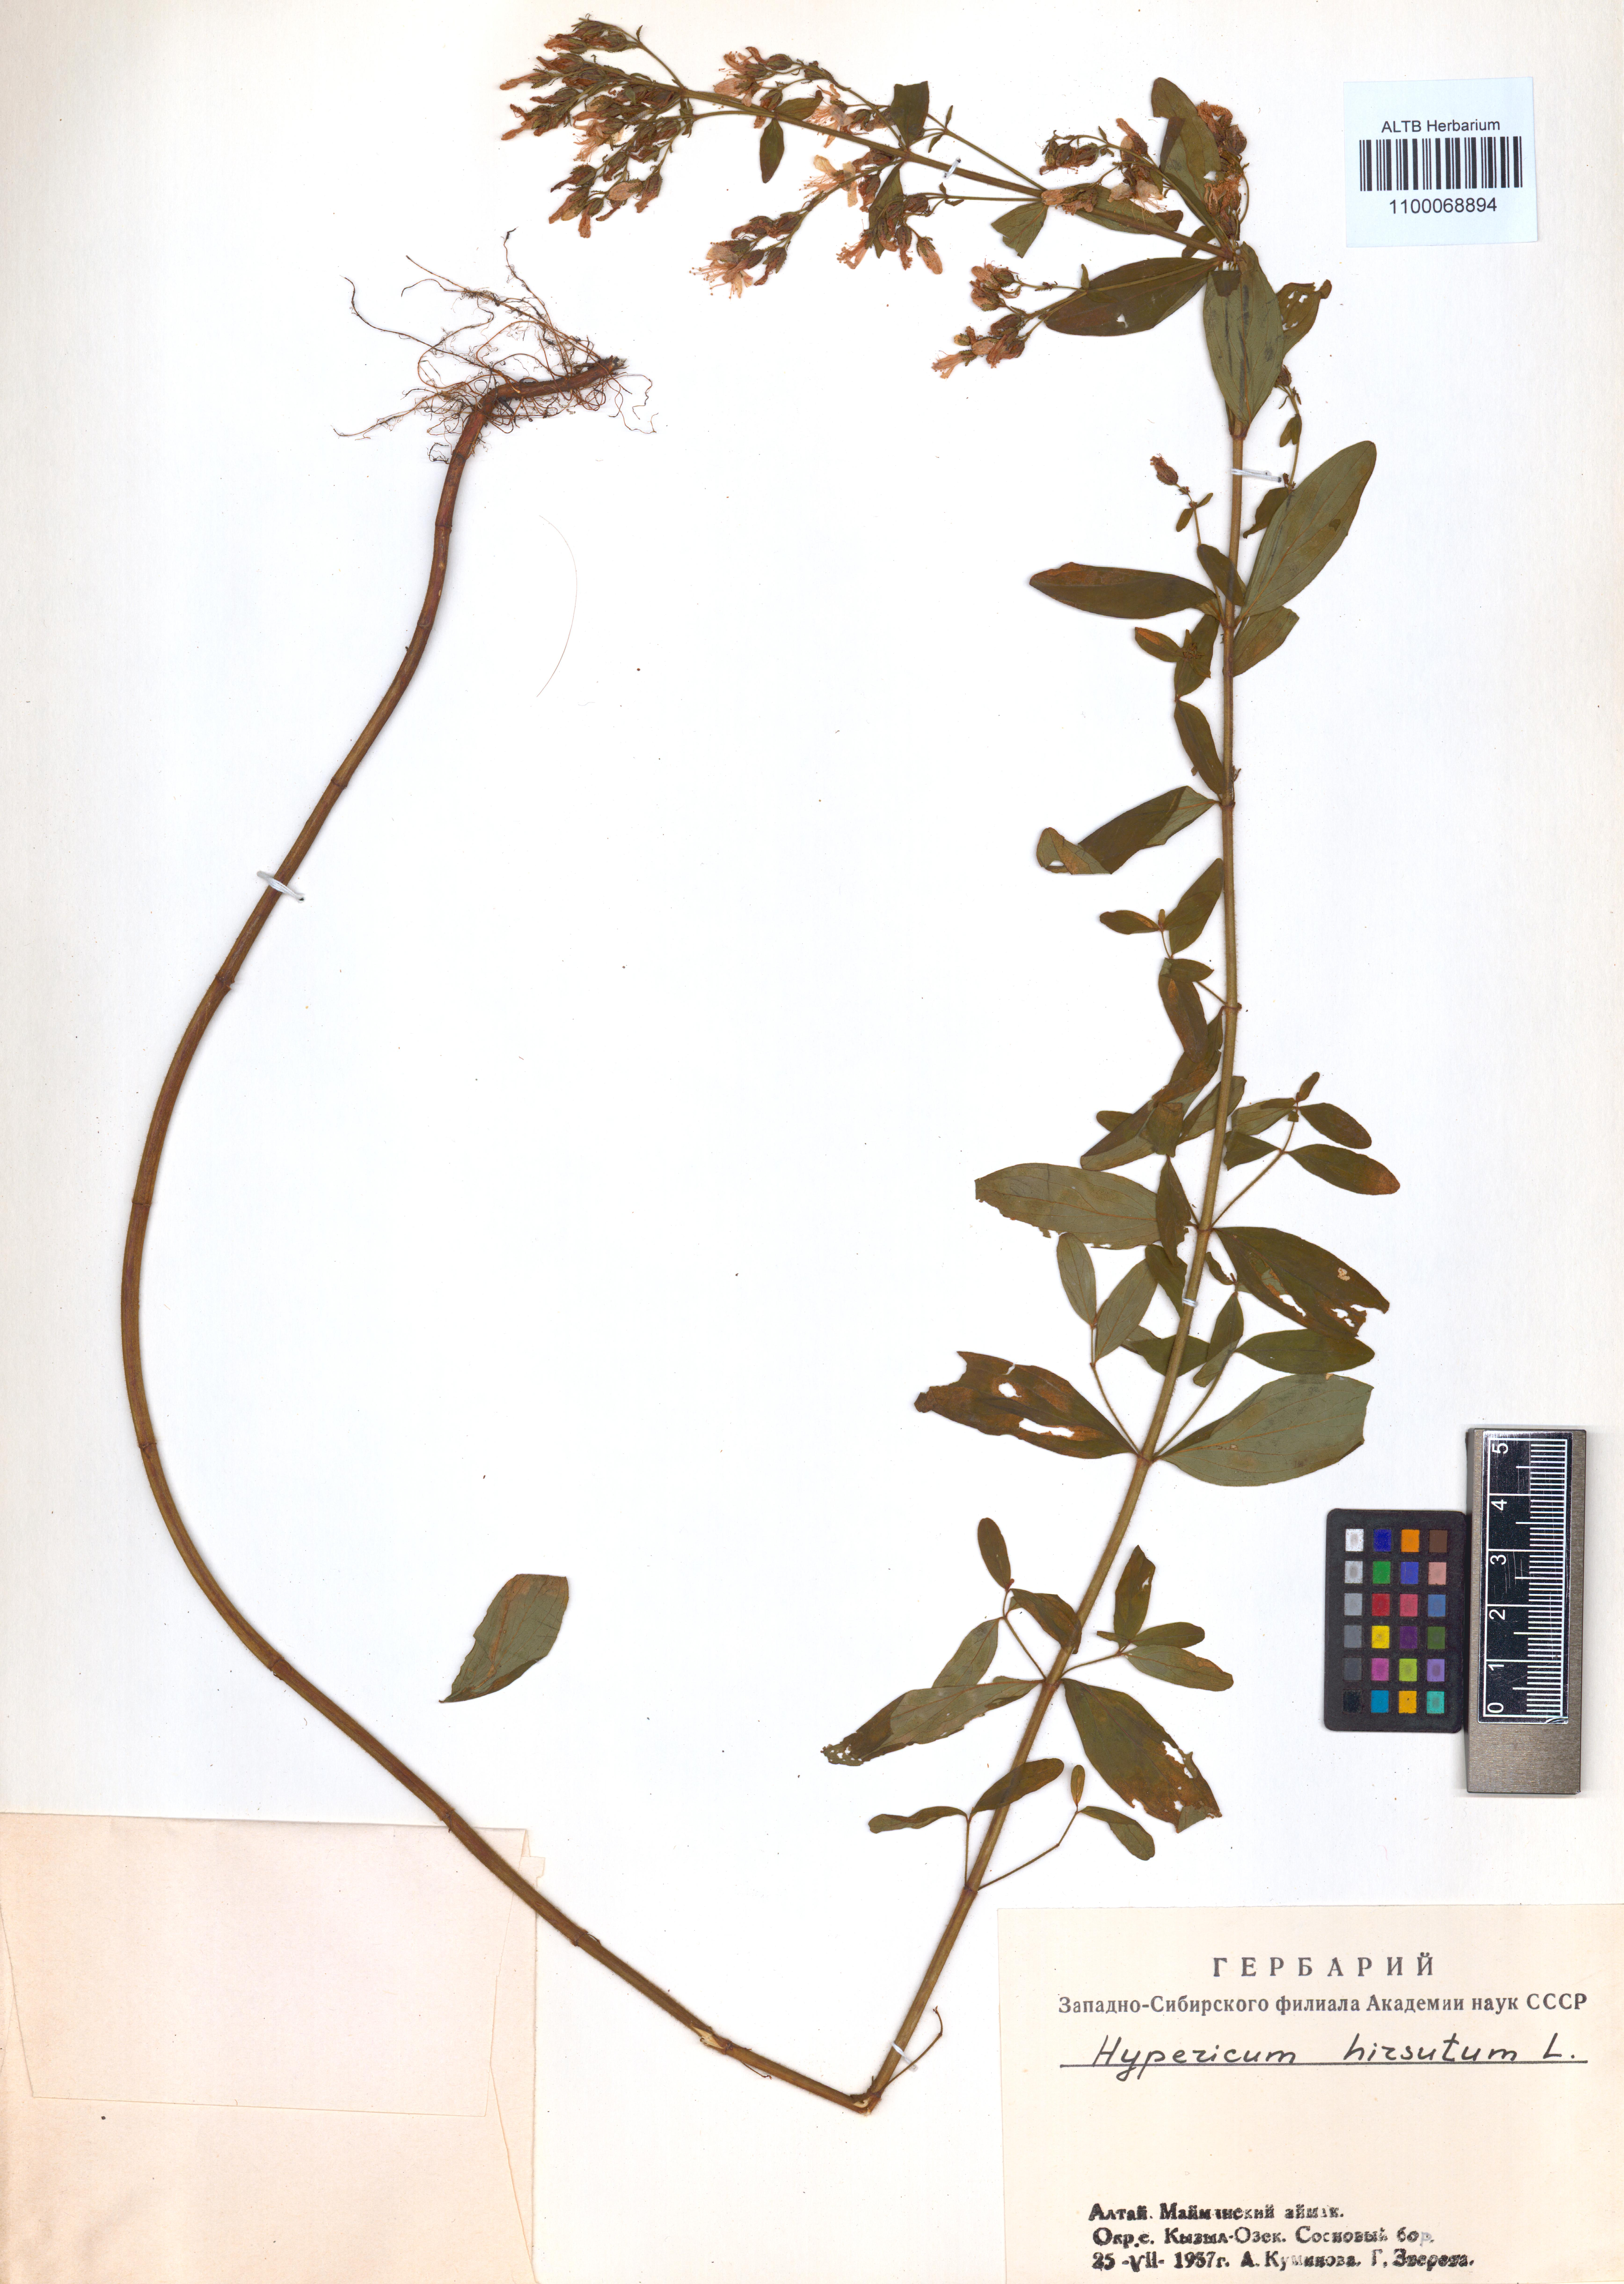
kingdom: Plantae
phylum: Tracheophyta
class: Magnoliopsida
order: Malpighiales
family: Hypericaceae
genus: Hypericum
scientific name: Hypericum hirsutum
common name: Hairy st. john's-wort
